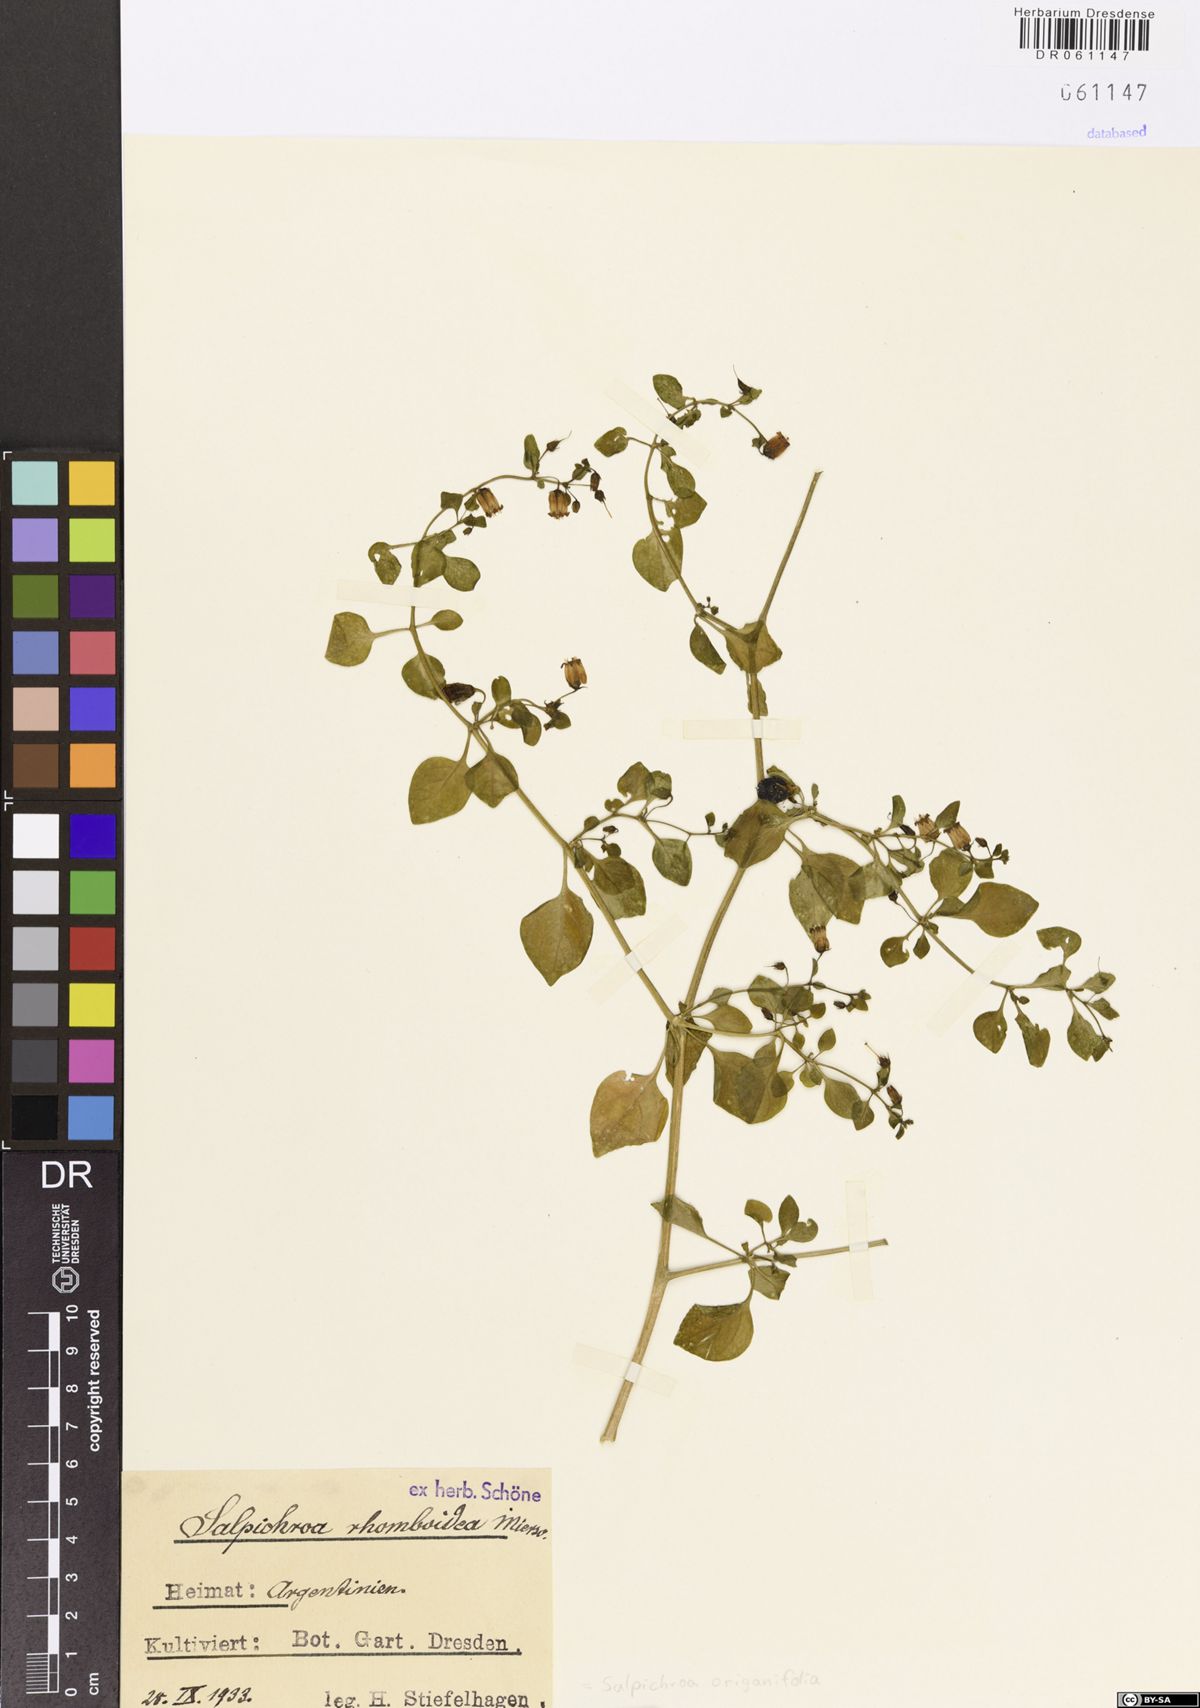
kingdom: Plantae
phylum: Tracheophyta
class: Magnoliopsida
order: Solanales
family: Solanaceae
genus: Salpichroa
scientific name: Salpichroa origanifolia
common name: Lily-of-the-valley-vine
